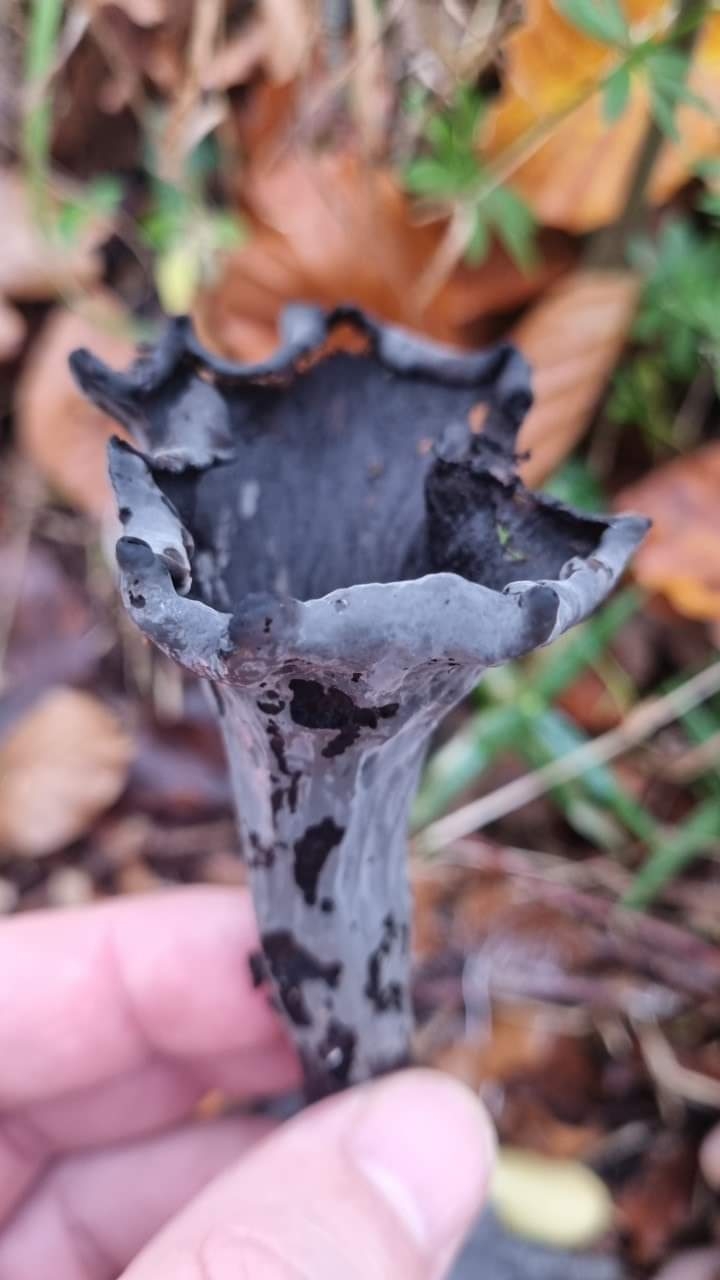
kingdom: Fungi
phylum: Basidiomycota
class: Agaricomycetes
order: Cantharellales
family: Hydnaceae
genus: Craterellus
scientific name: Craterellus cornucopioides
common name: trompetsvamp
